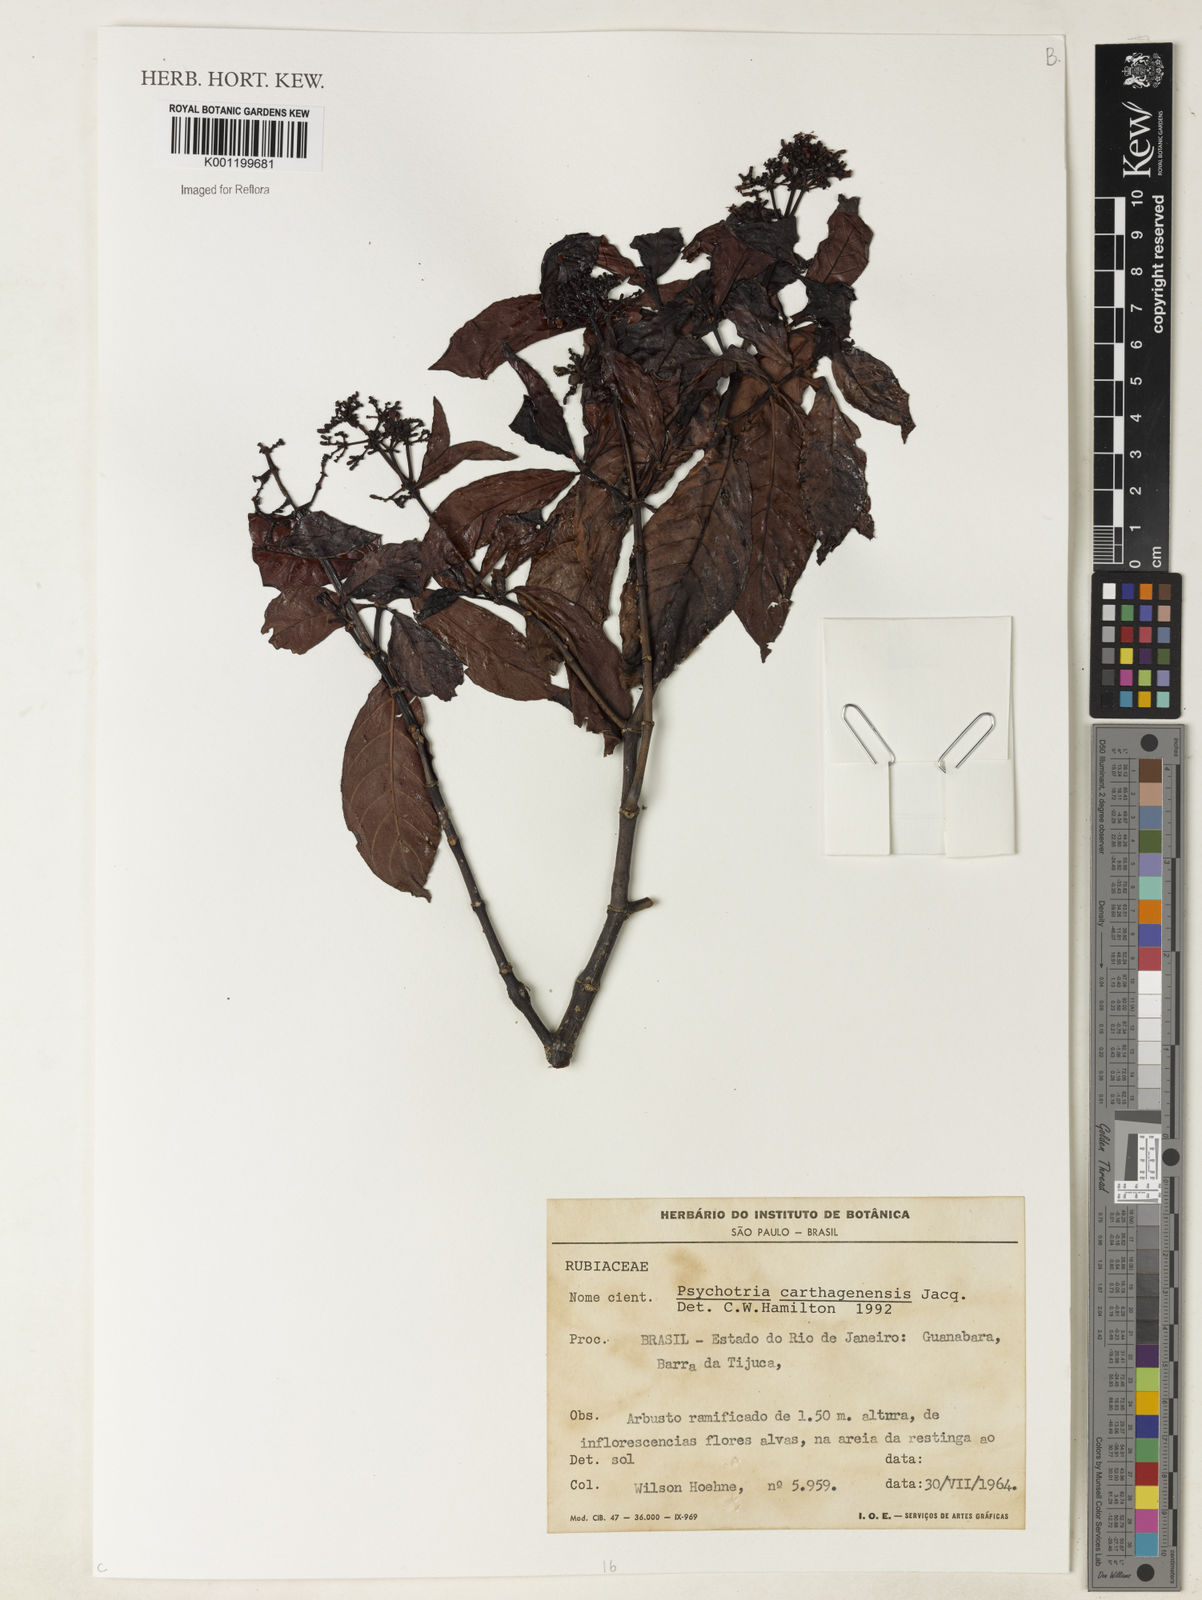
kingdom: Plantae
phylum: Tracheophyta
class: Magnoliopsida
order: Gentianales
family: Rubiaceae
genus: Psychotria
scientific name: Psychotria carthagenensis
